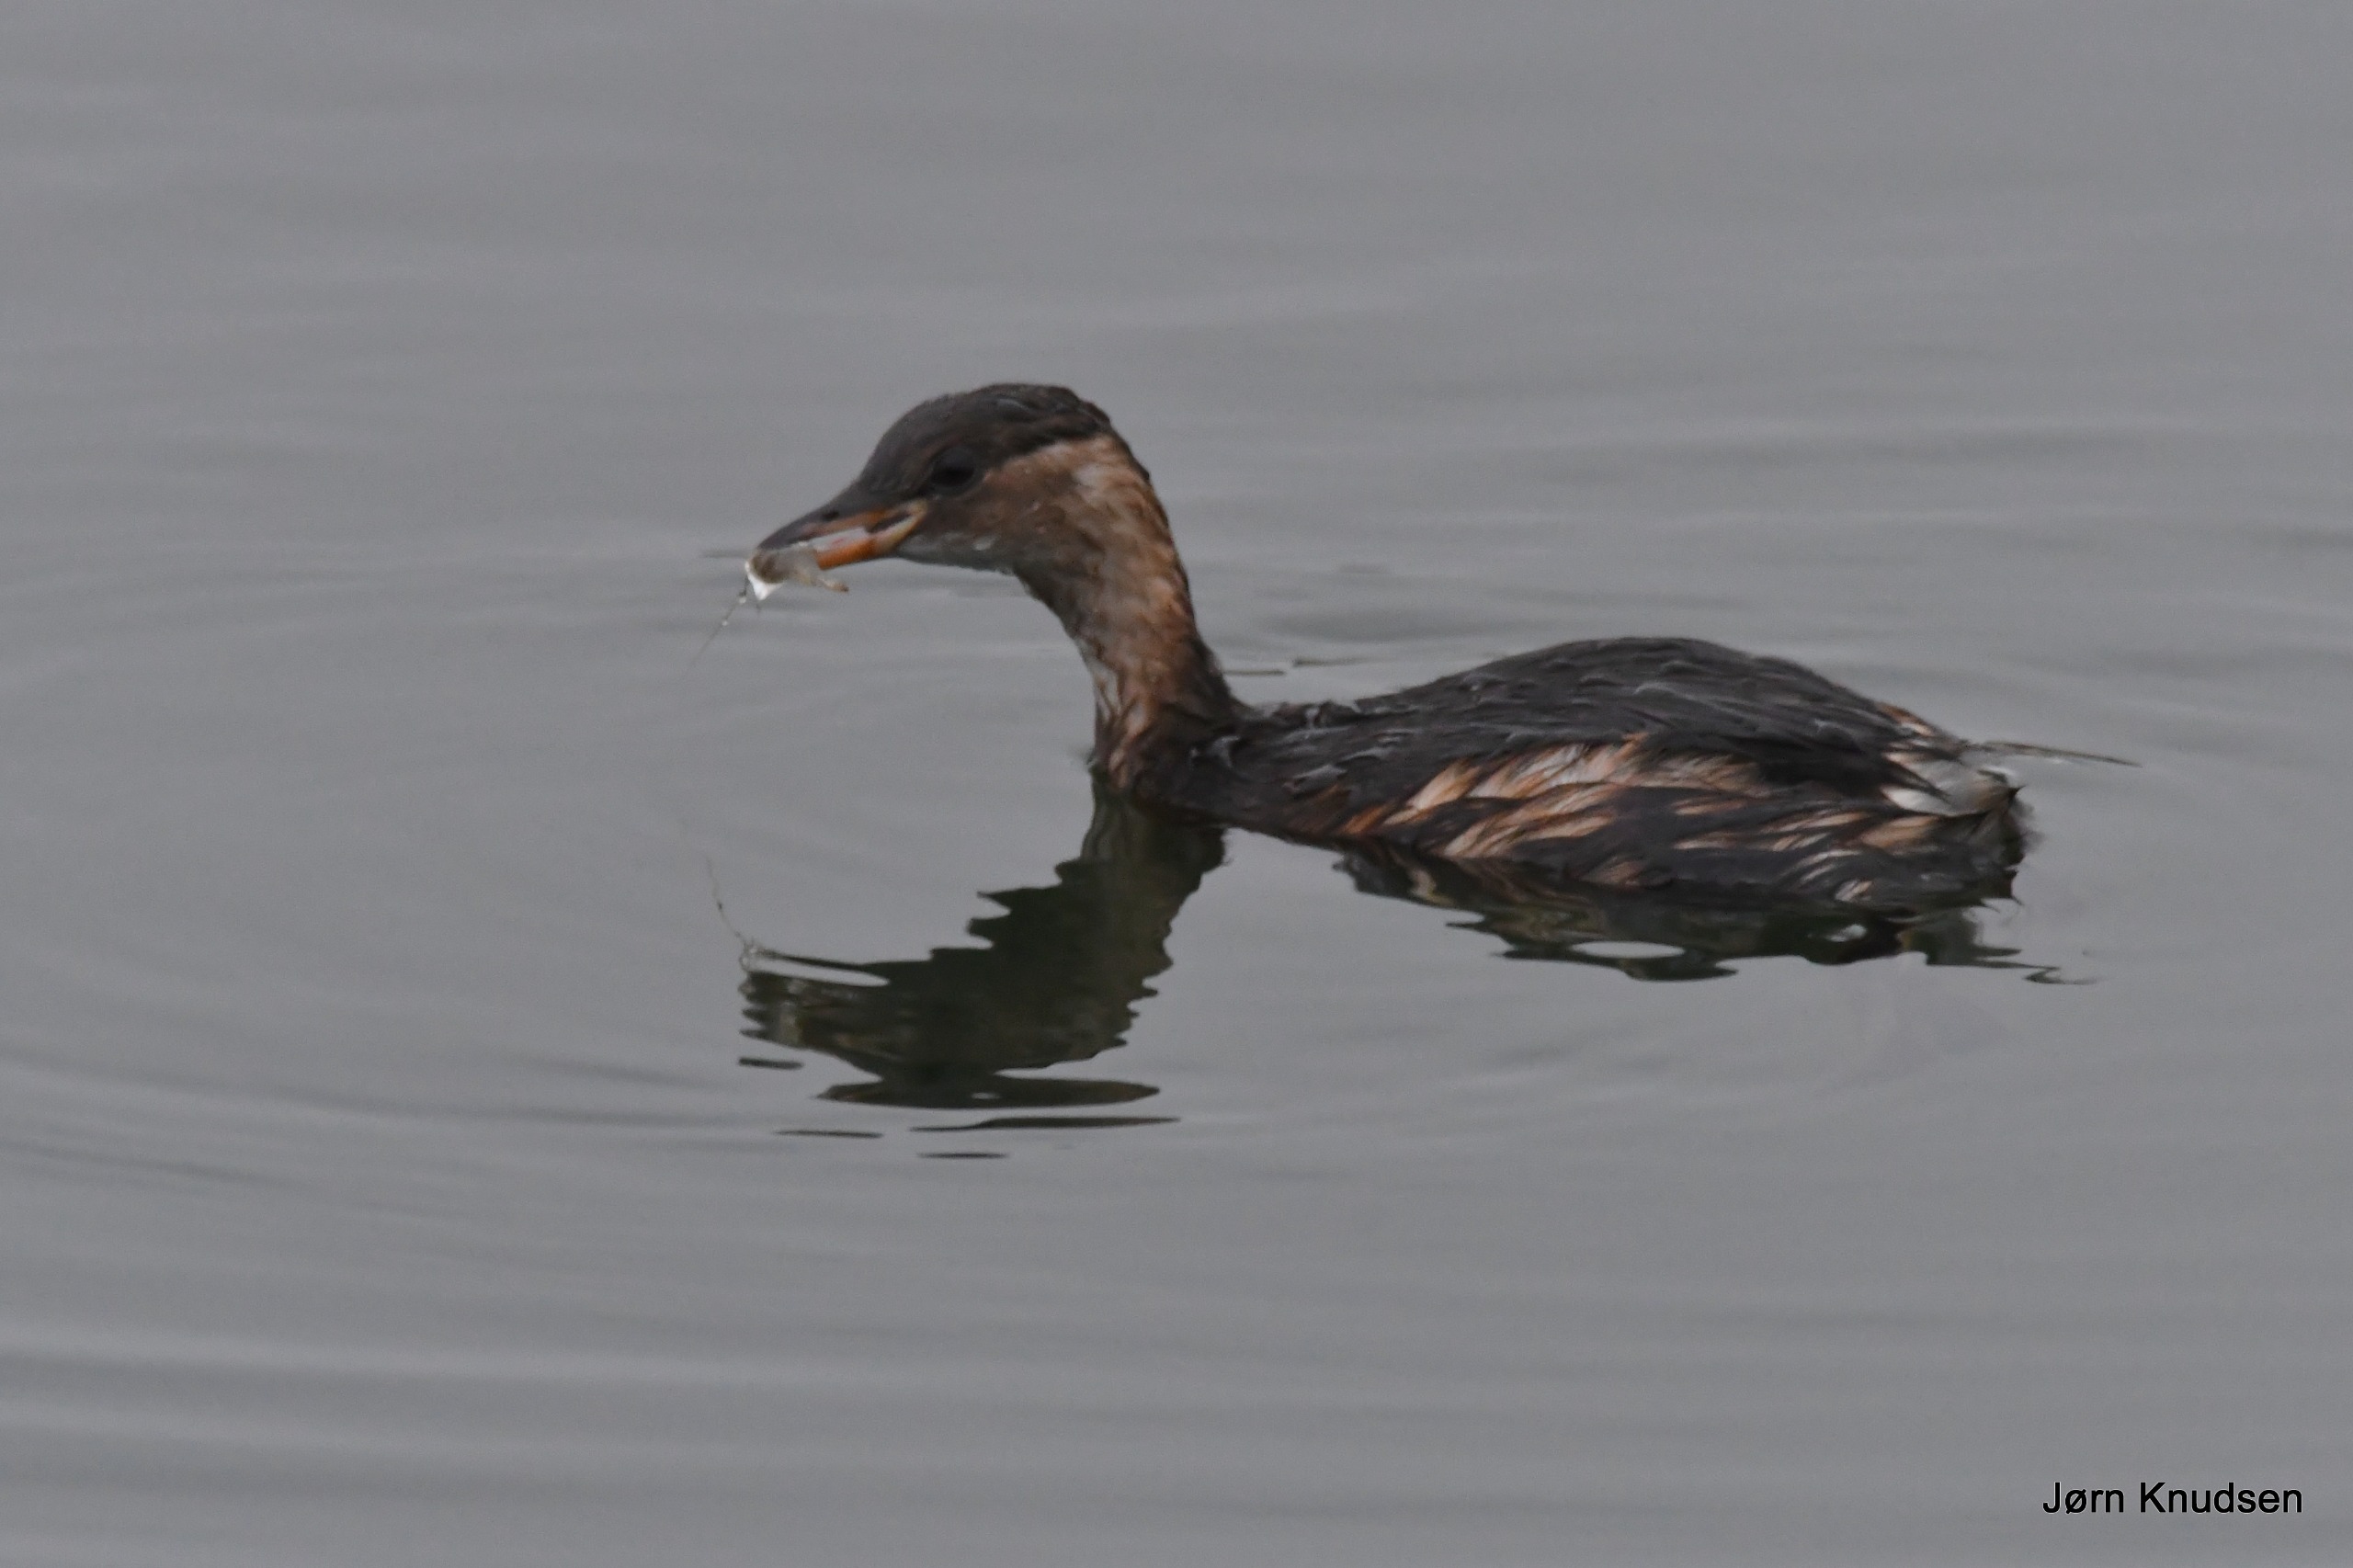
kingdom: Animalia
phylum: Chordata
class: Aves
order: Podicipediformes
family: Podicipedidae
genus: Tachybaptus
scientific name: Tachybaptus ruficollis
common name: Lille lappedykker
